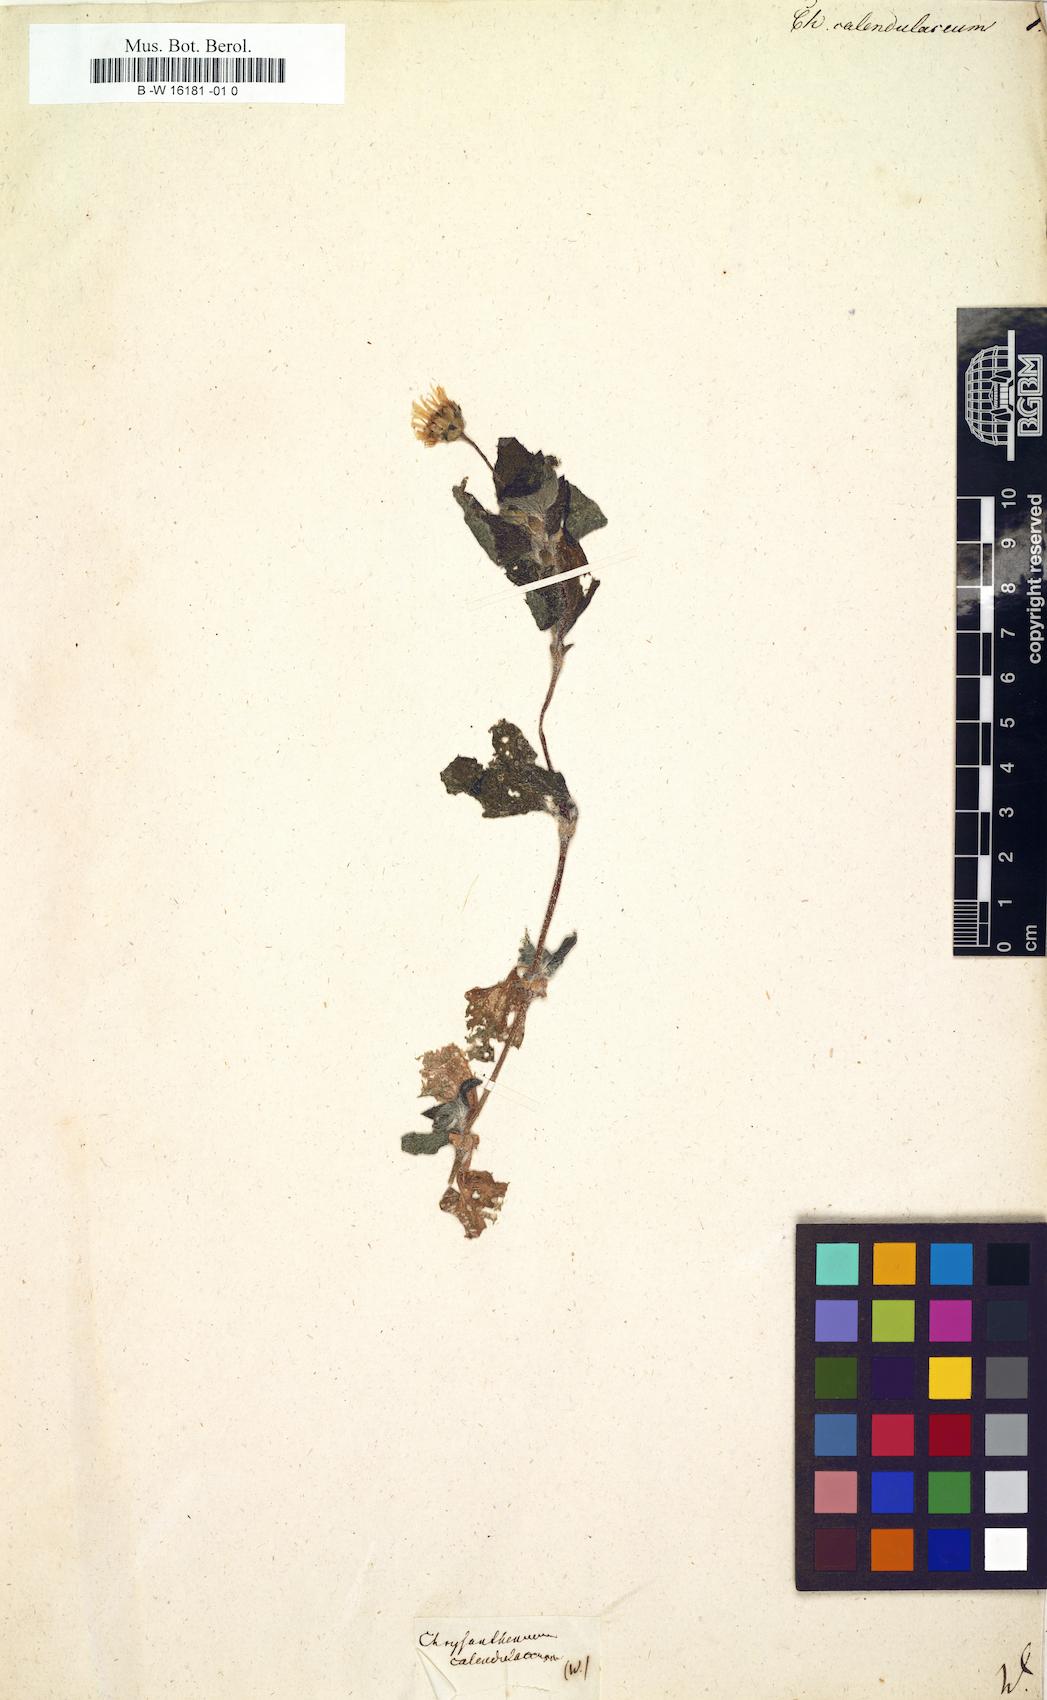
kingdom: Plantae
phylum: Tracheophyta
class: Magnoliopsida
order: Asterales
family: Asteraceae
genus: Chrysanthemum
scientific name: Chrysanthemum
